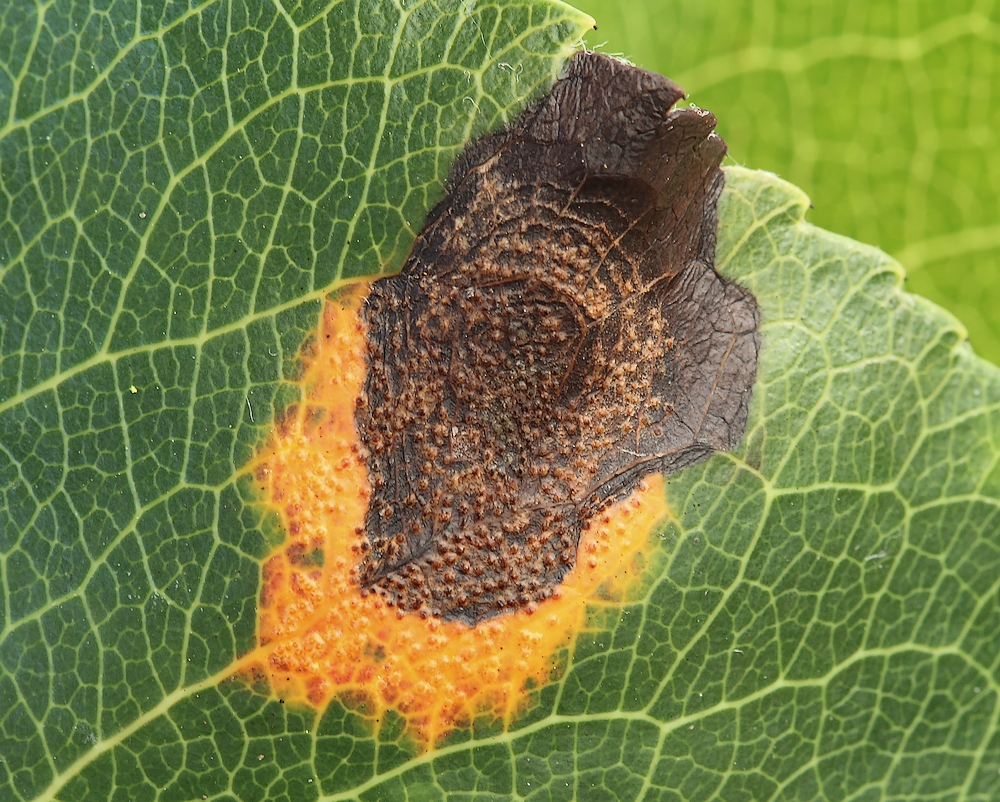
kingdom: Fungi
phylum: Basidiomycota
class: Pucciniomycetes
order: Pucciniales
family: Gymnosporangiaceae
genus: Gymnosporangium
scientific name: Gymnosporangium sabinae
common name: pæregitter-bævrerust
